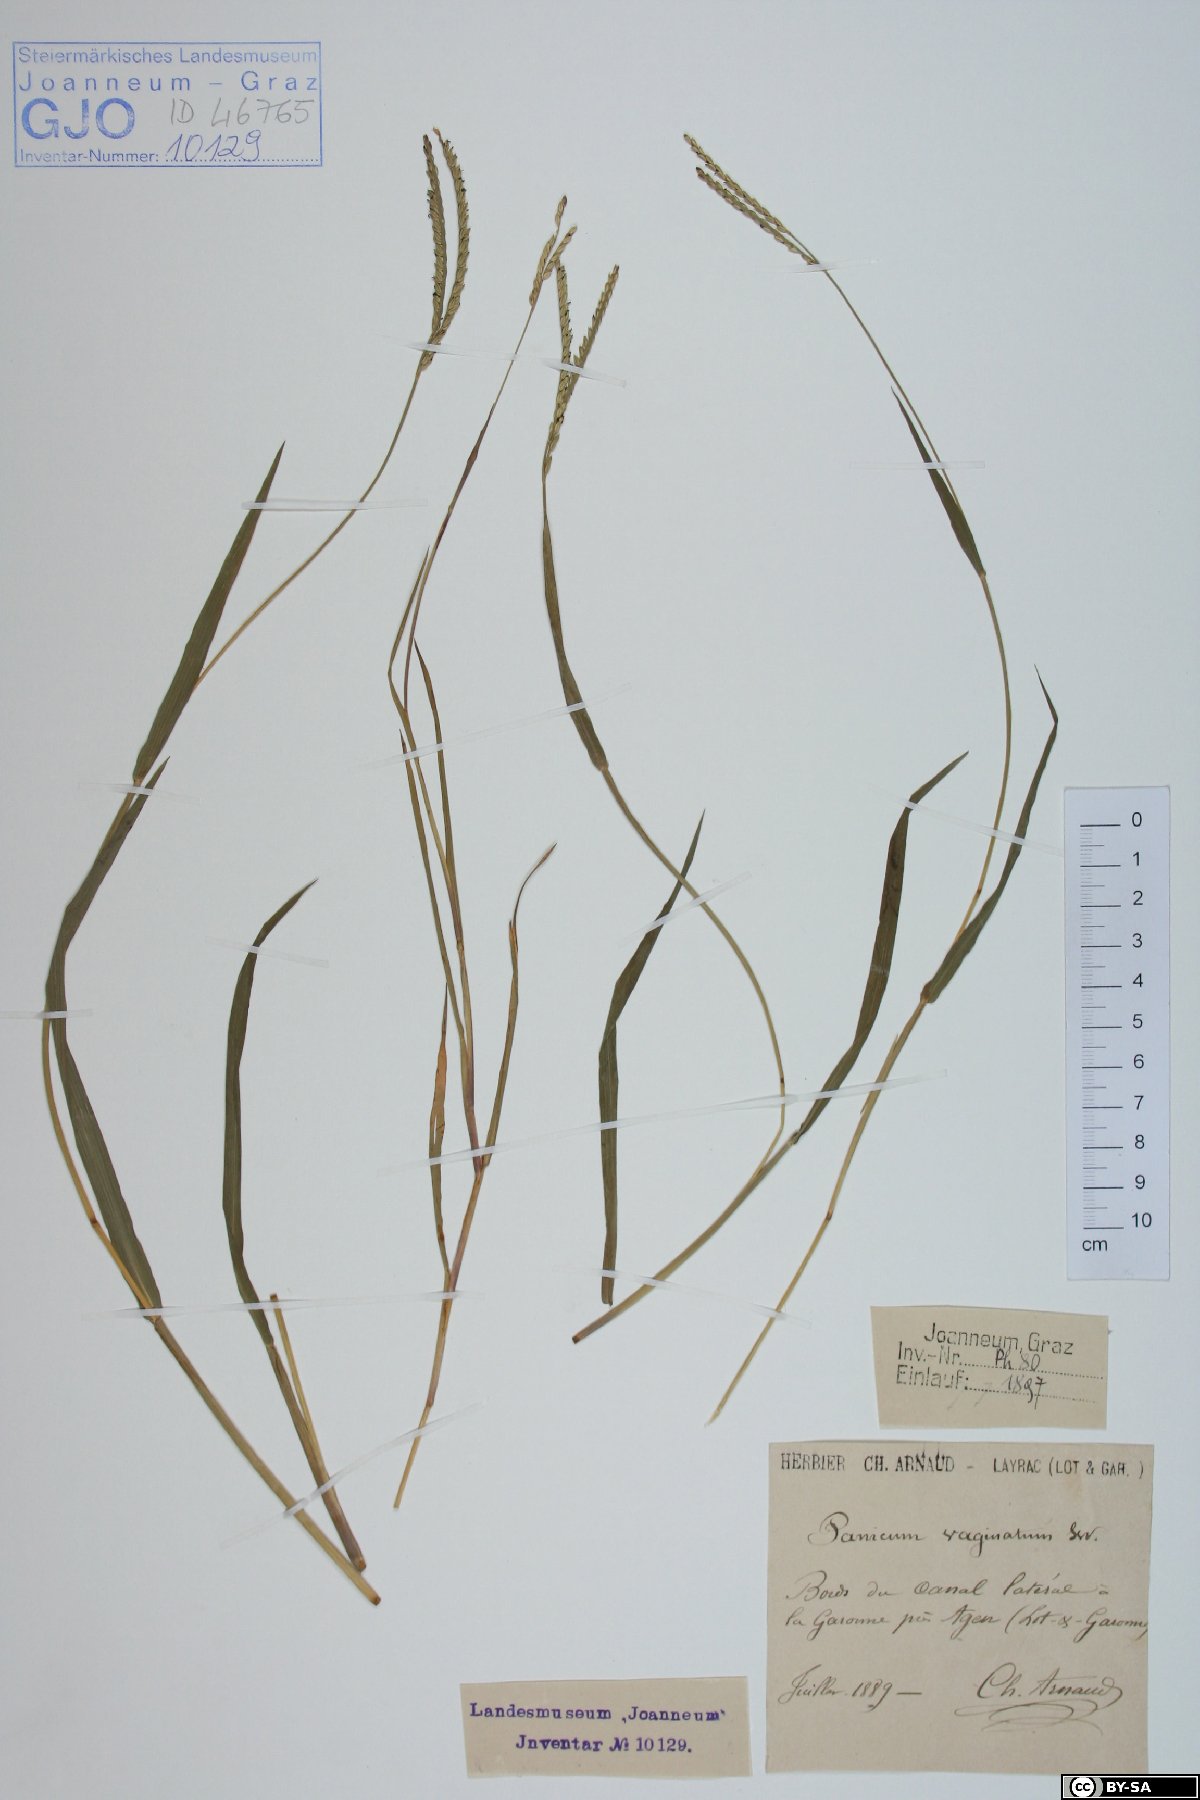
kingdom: Plantae
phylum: Tracheophyta
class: Liliopsida
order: Poales
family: Poaceae
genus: Paspalum
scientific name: Paspalum vaginatum
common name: Seashore paspalum
